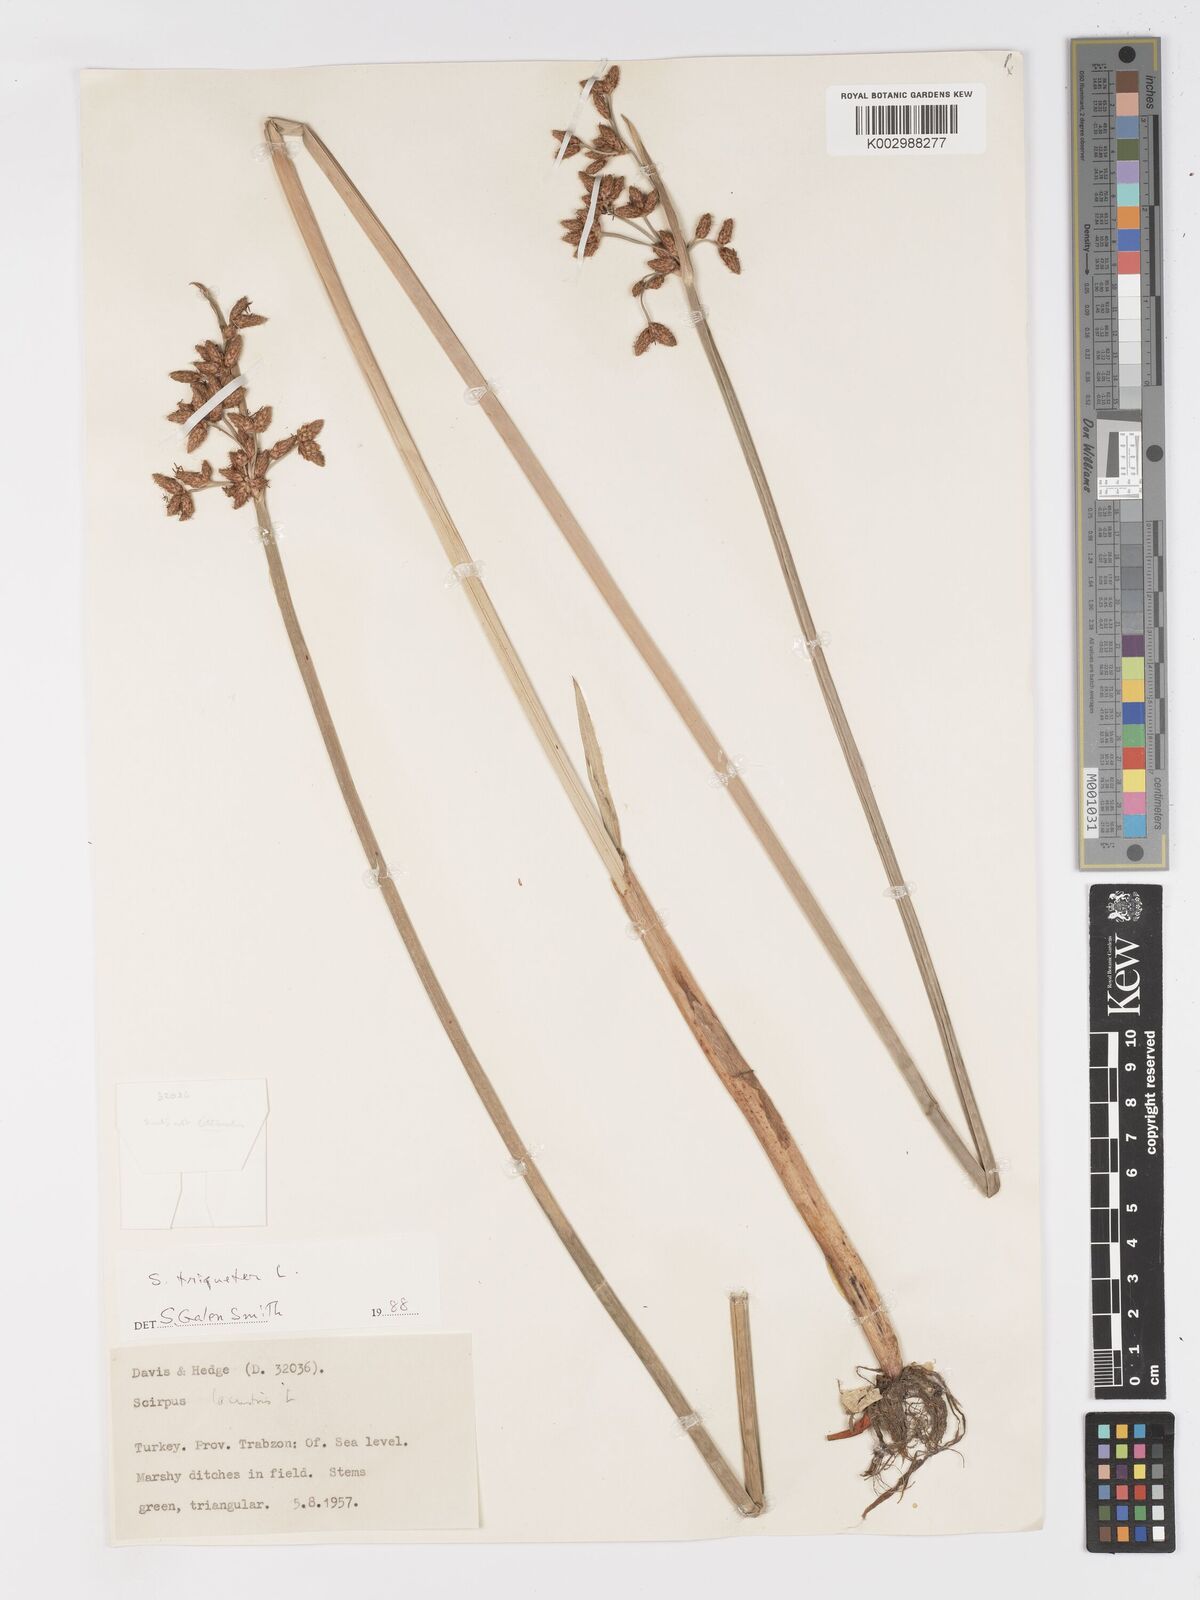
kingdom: Plantae
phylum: Tracheophyta
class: Liliopsida
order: Poales
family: Cyperaceae
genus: Schoenoplectus
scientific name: Schoenoplectus triqueter
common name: Triangular club-rush
